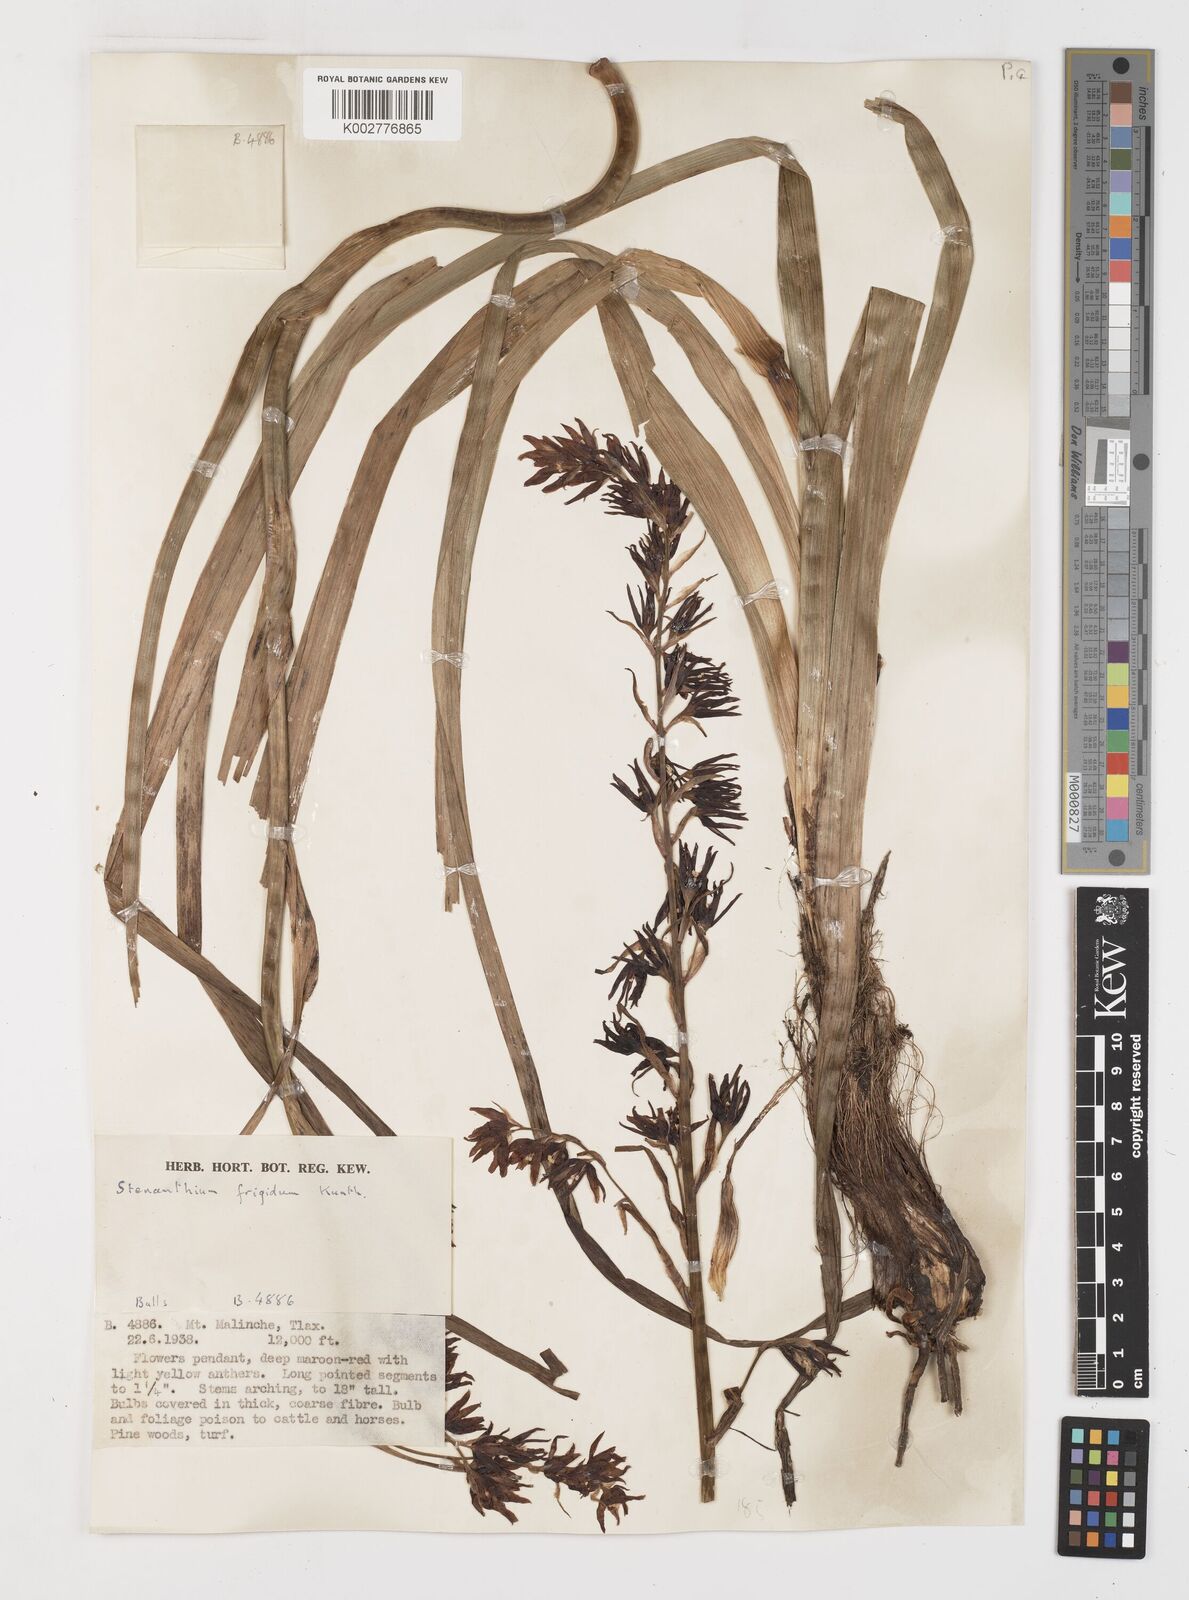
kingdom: Plantae
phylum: Tracheophyta
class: Liliopsida
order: Liliales
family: Melanthiaceae
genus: Anticlea
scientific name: Anticlea frigida
